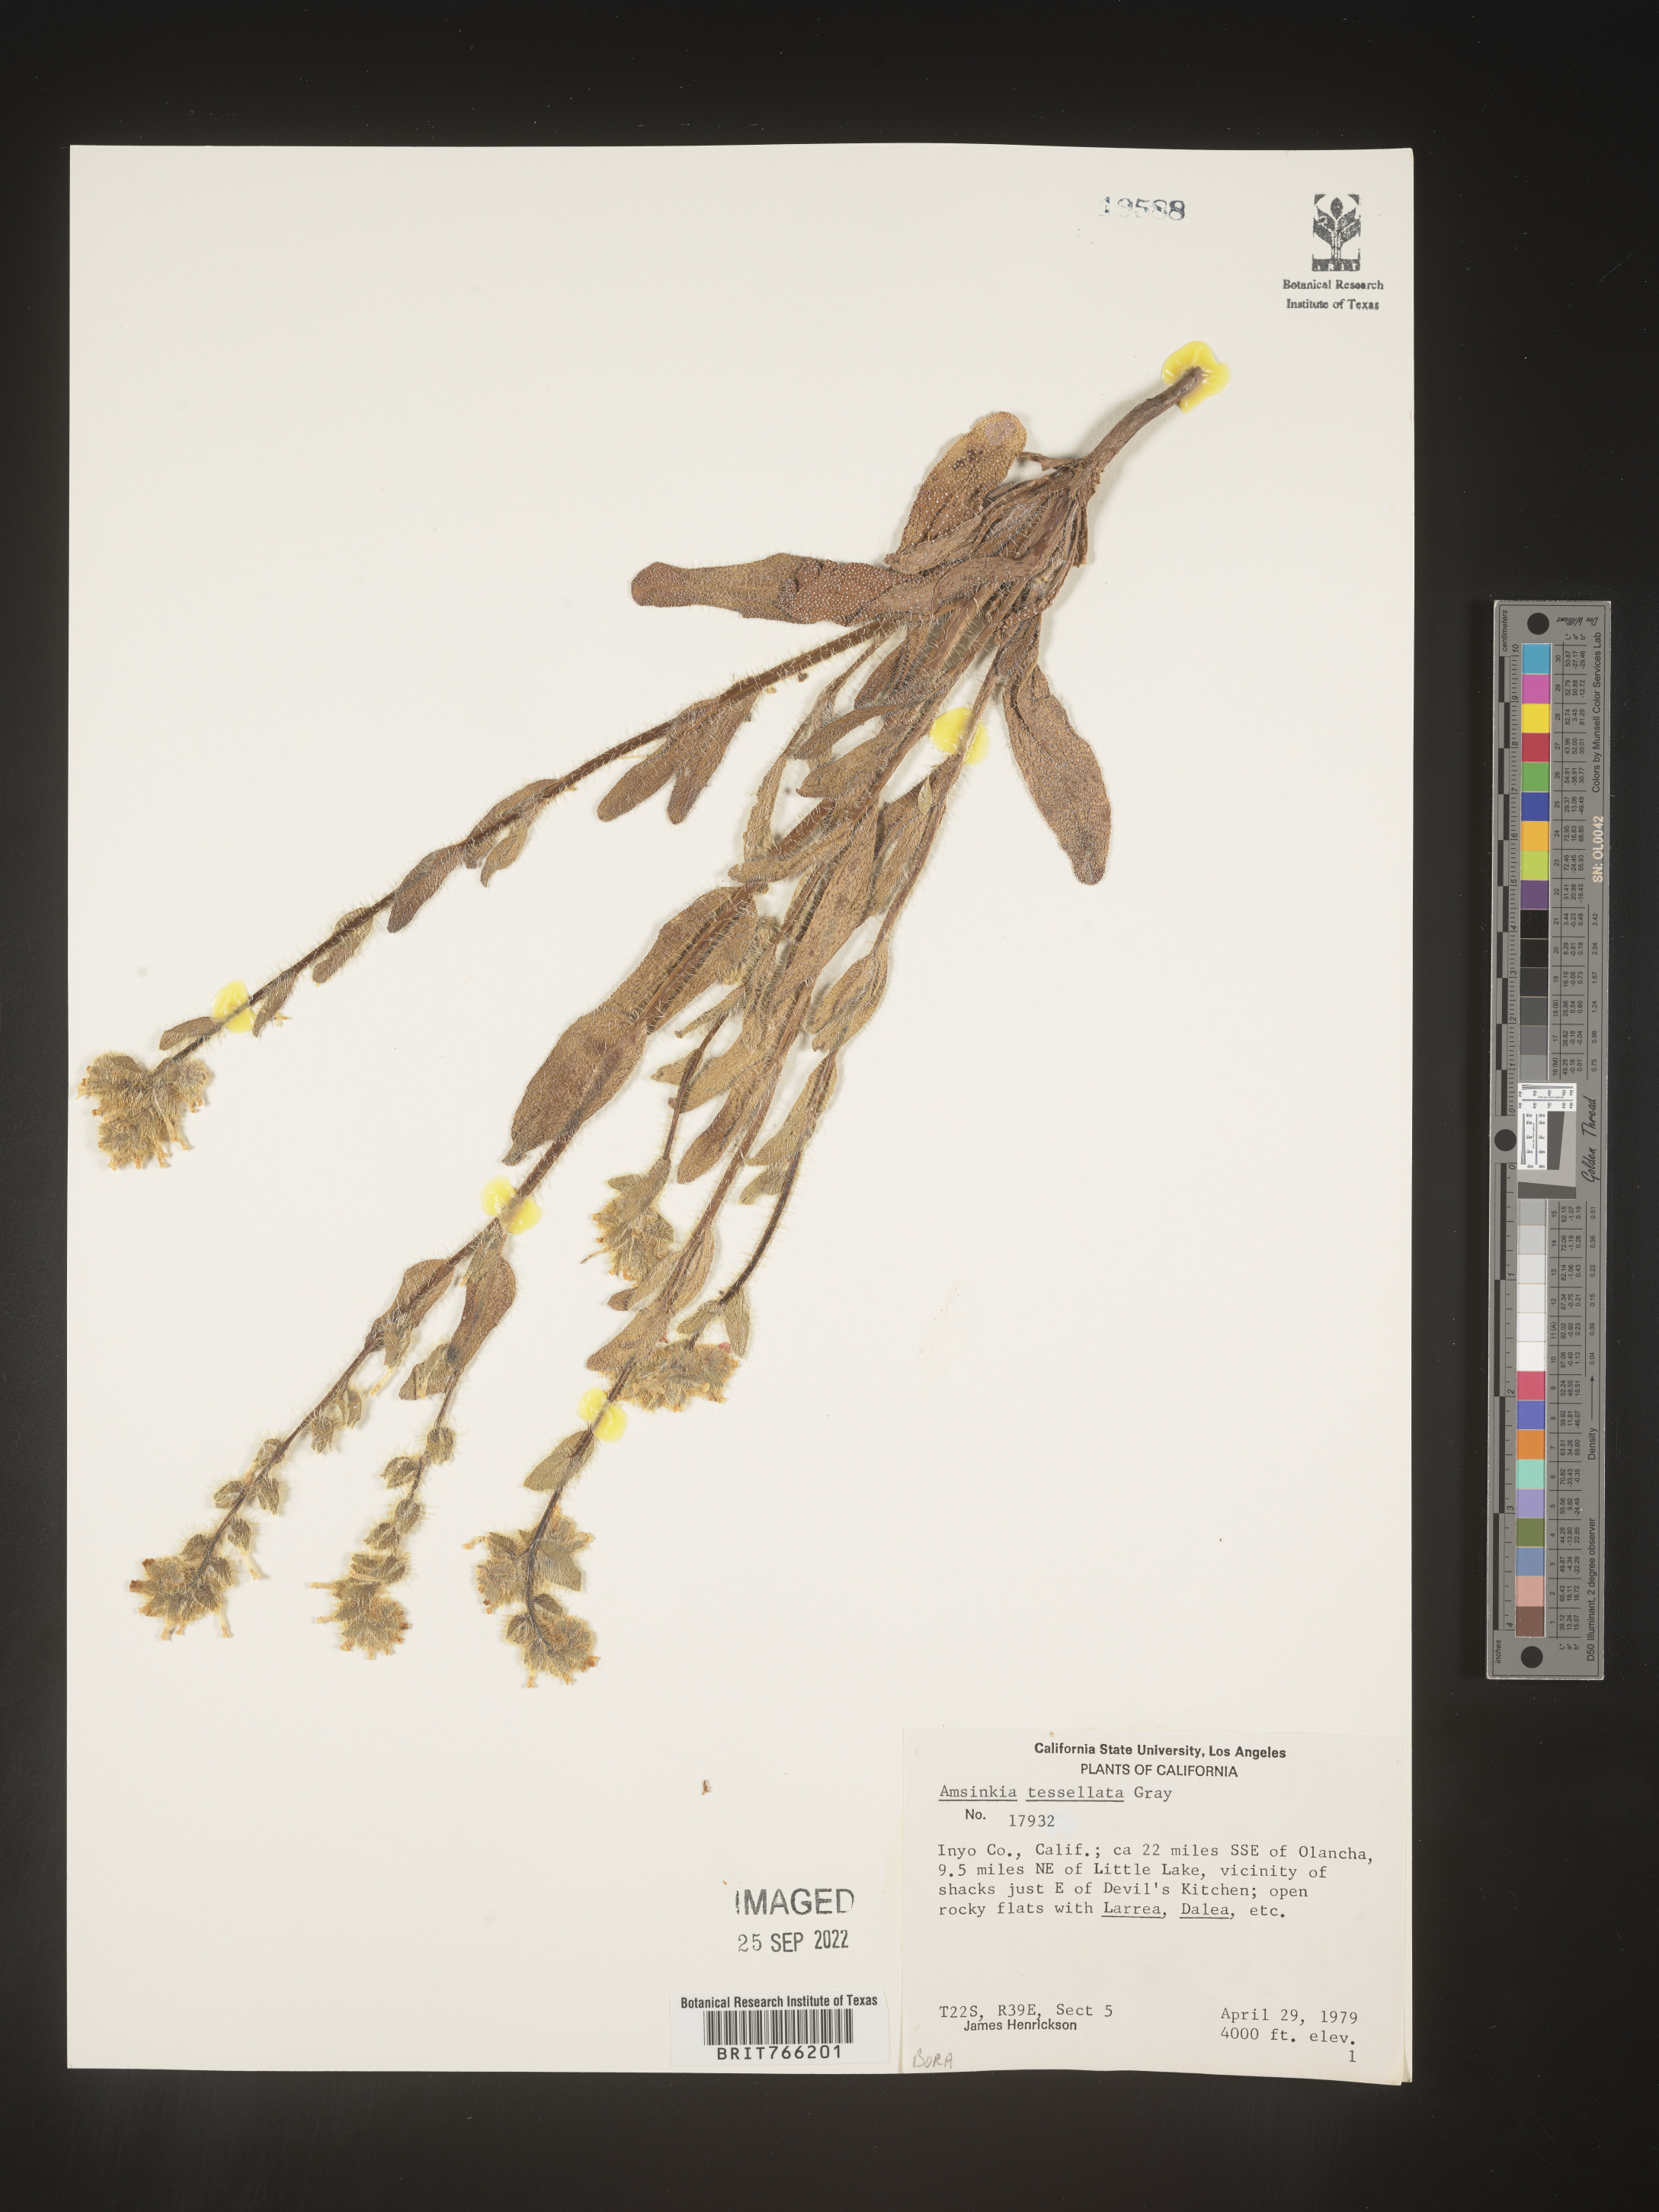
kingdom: Plantae
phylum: Tracheophyta
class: Magnoliopsida
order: Boraginales
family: Boraginaceae
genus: Amsinckia
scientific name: Amsinckia tessellata
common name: Tessellate fiddleneck
